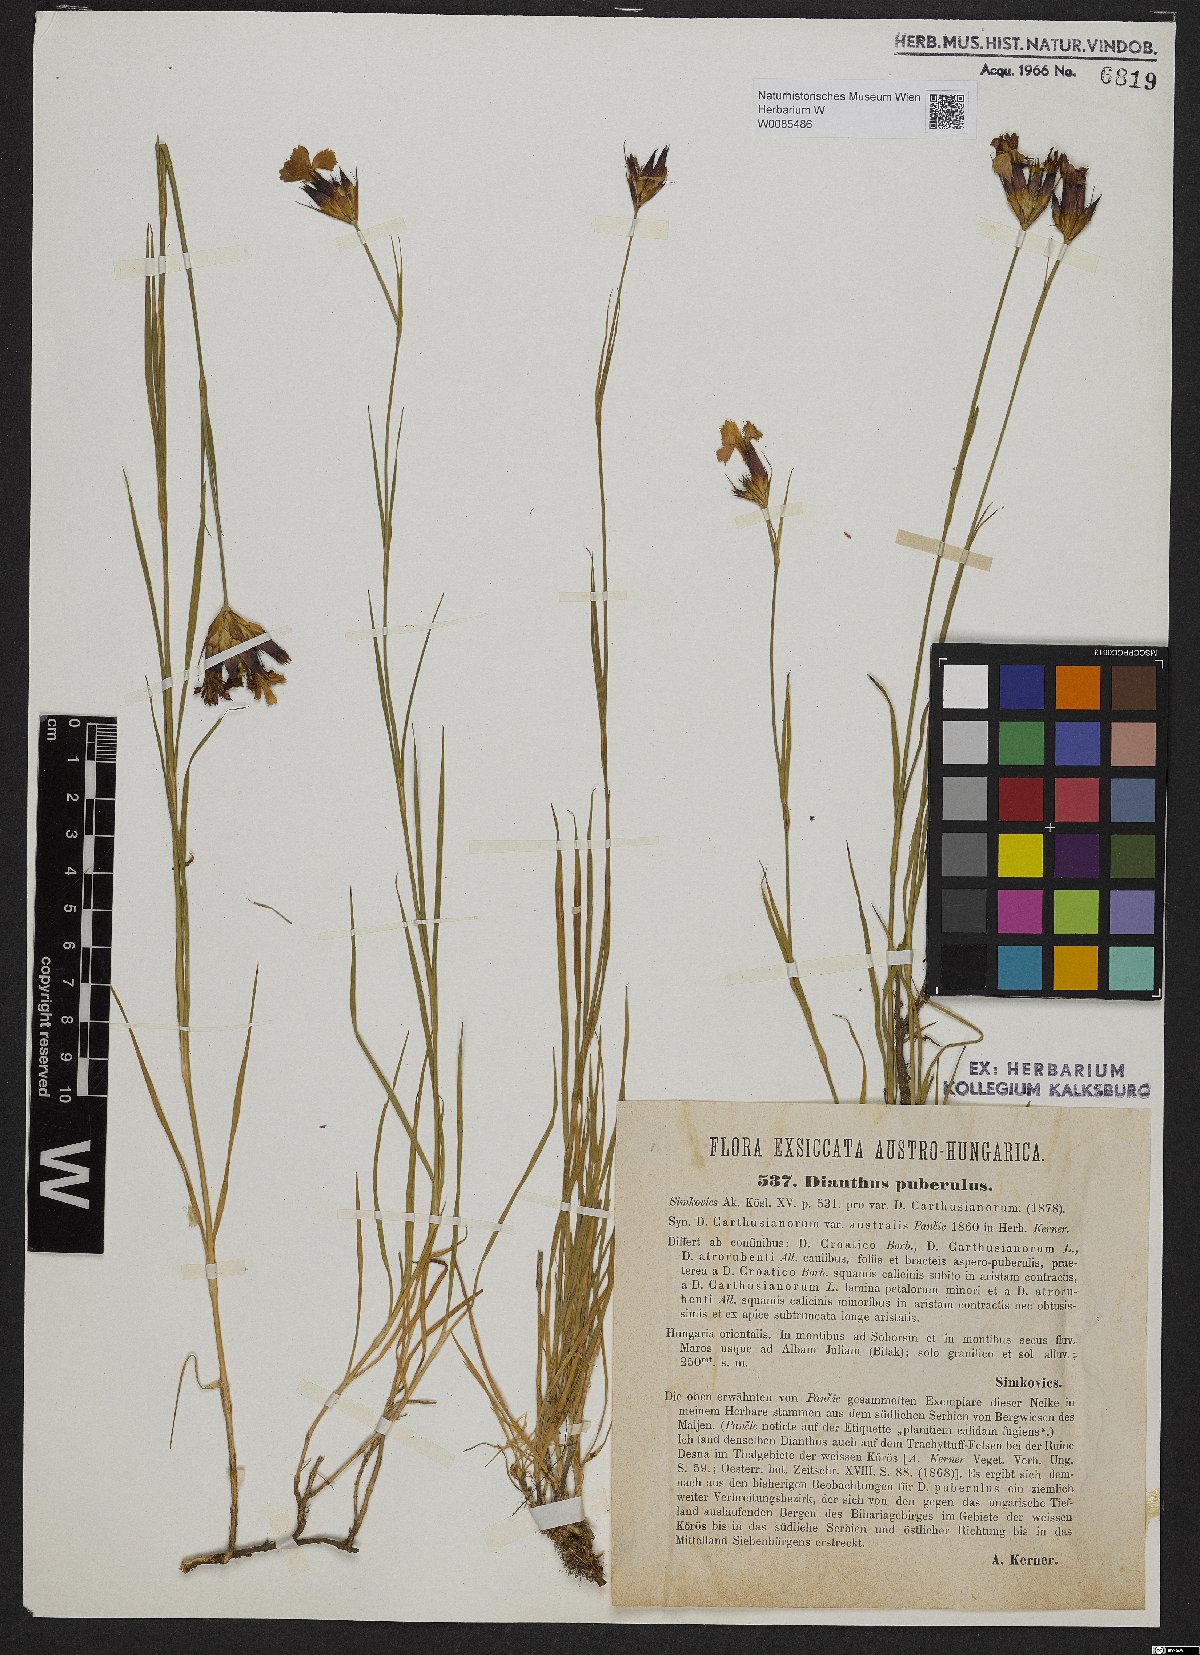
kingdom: Plantae
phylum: Tracheophyta
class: Magnoliopsida
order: Caryophyllales
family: Caryophyllaceae
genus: Dianthus
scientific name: Dianthus carthusianorum
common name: Carthusian pink
